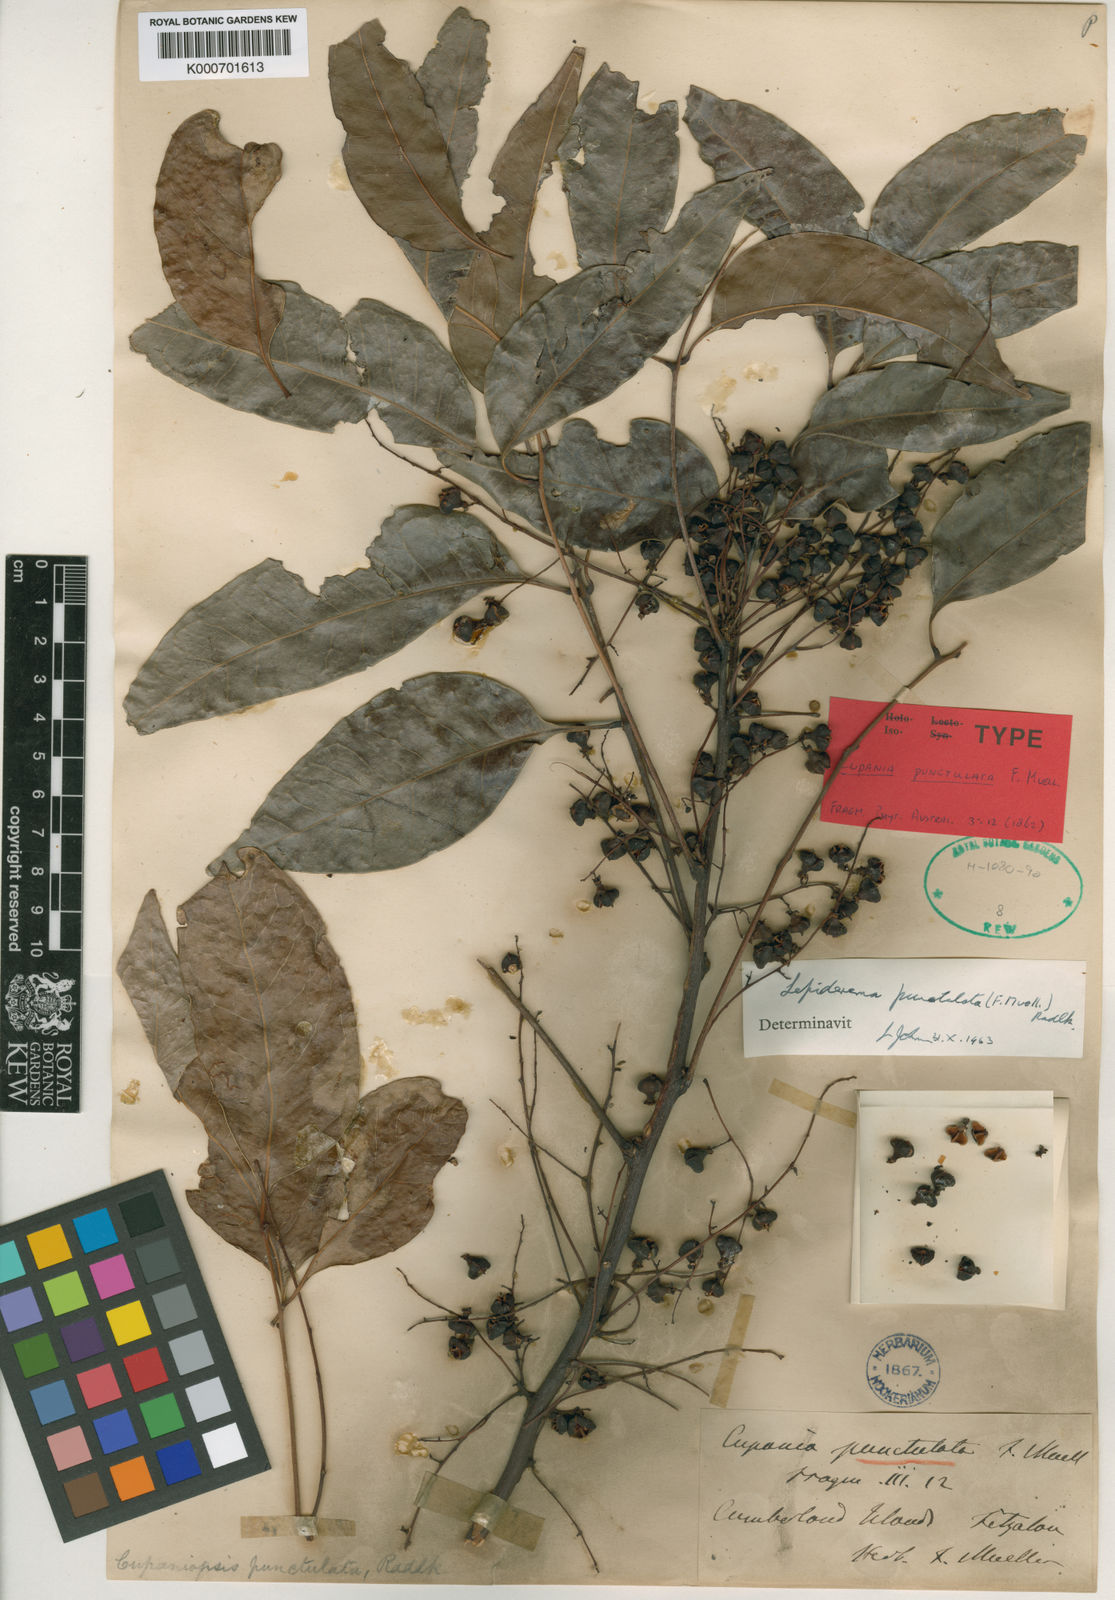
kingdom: Plantae
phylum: Tracheophyta
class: Magnoliopsida
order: Sapindales
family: Sapindaceae
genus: Lepiderema
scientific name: Lepiderema punctulata
